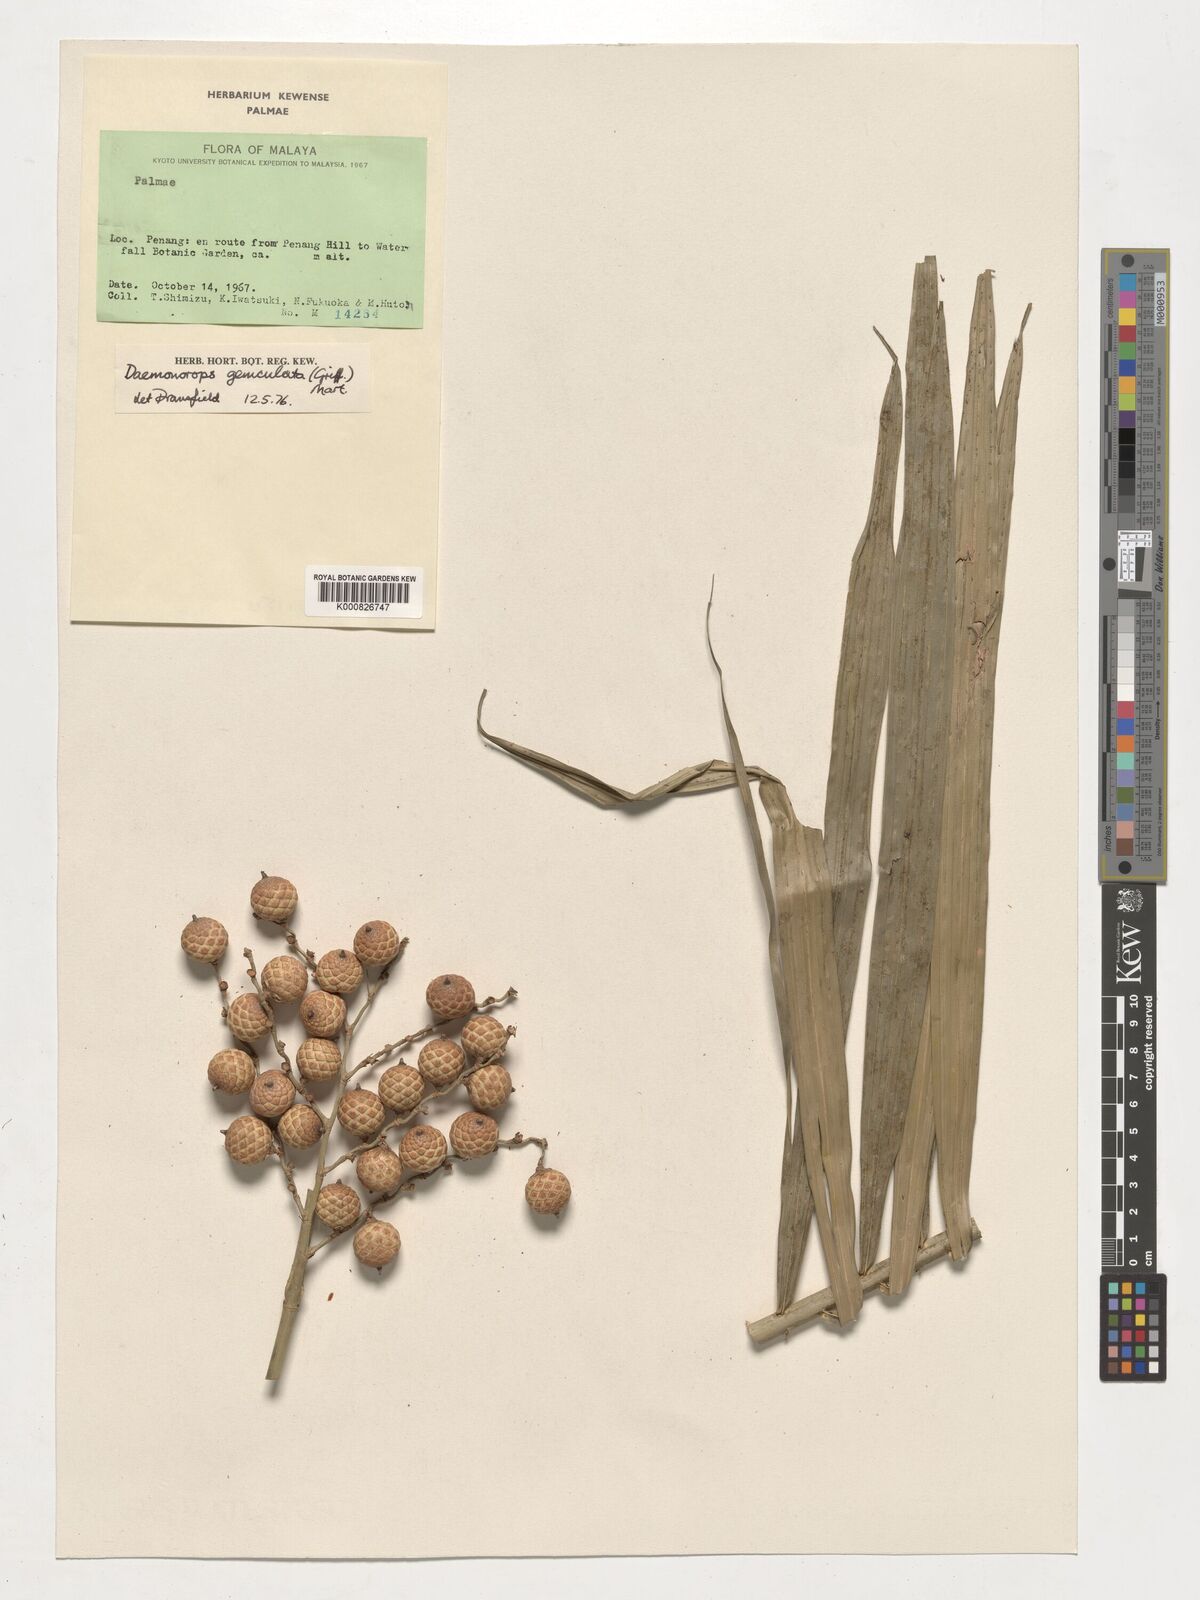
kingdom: Plantae
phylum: Tracheophyta
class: Liliopsida
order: Arecales
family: Arecaceae
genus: Calamus
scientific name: Calamus geniculatus
